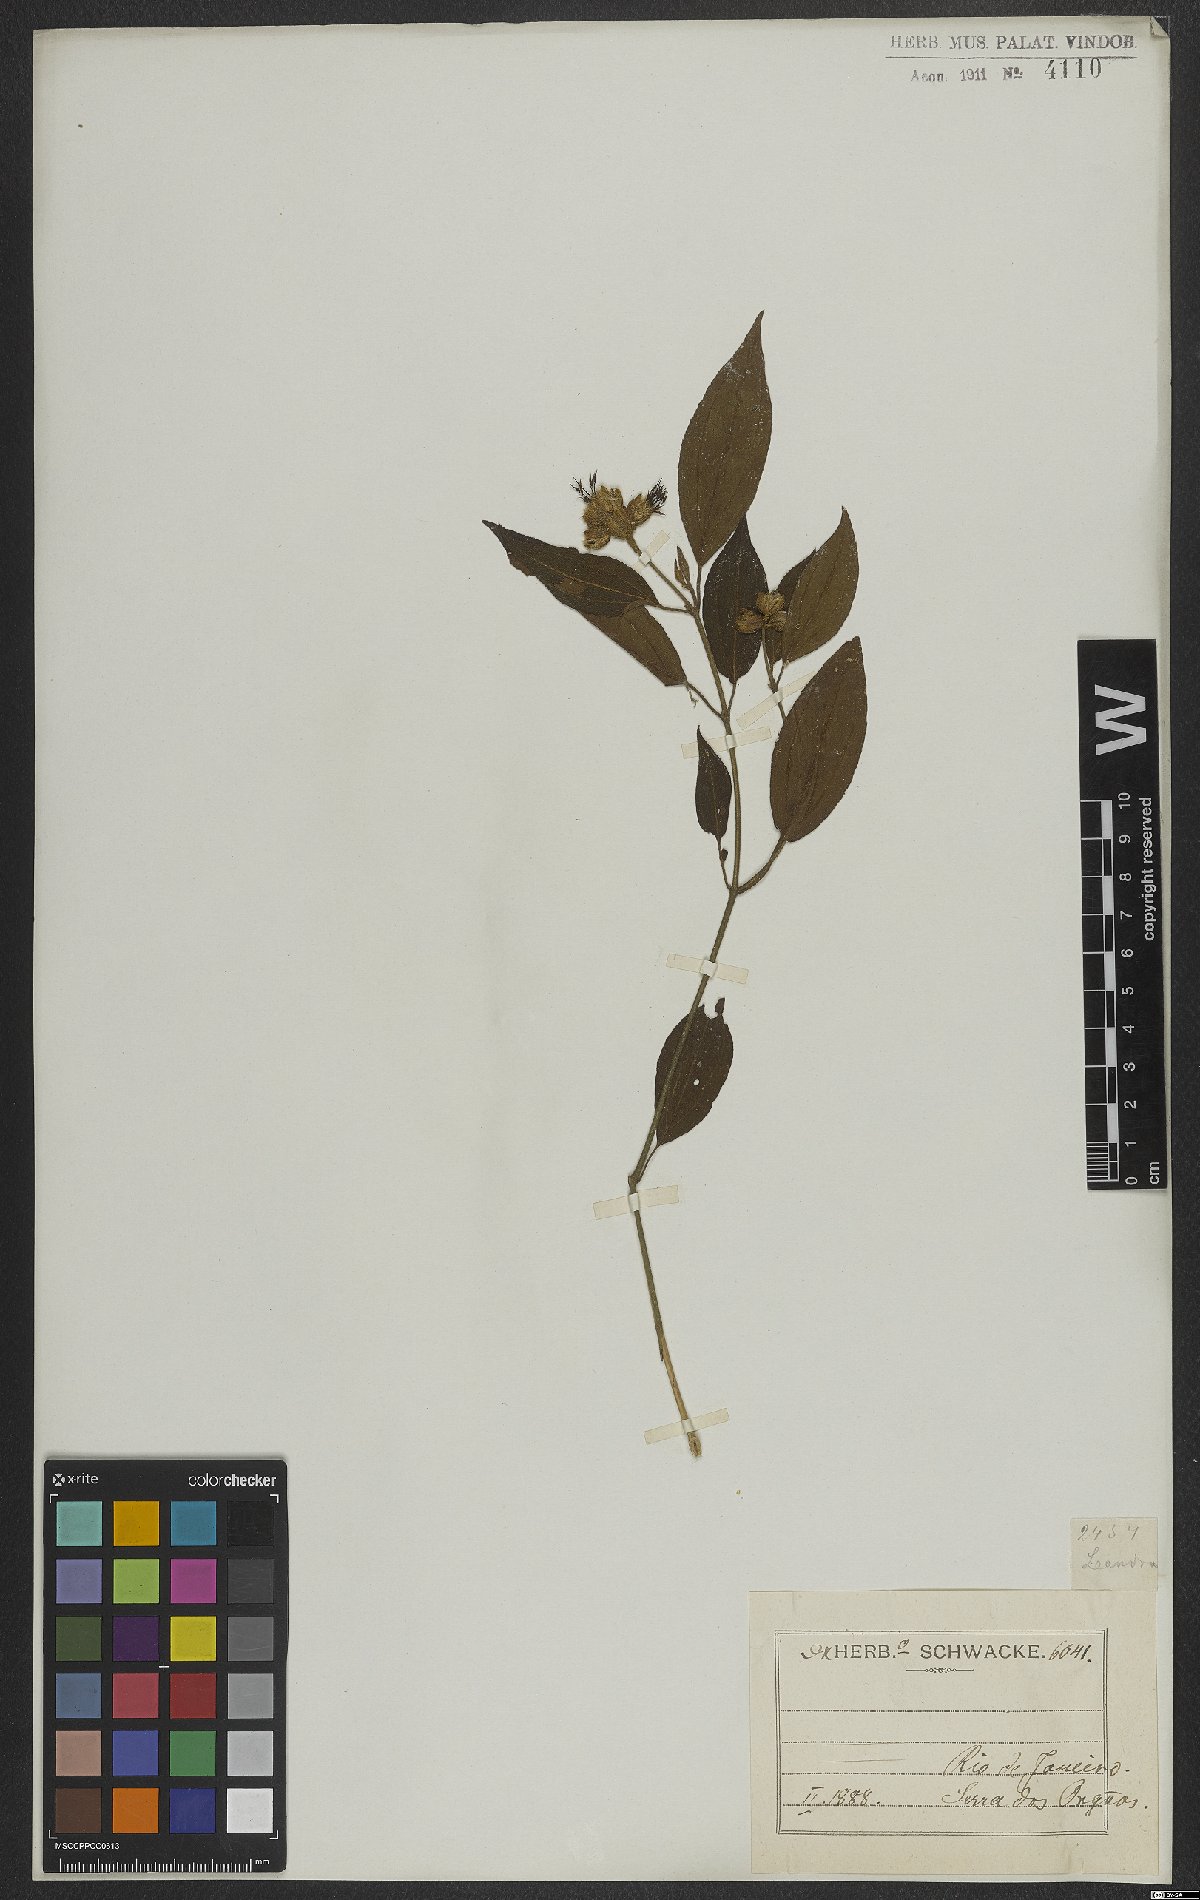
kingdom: Plantae
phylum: Tracheophyta
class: Magnoliopsida
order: Myrtales
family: Melastomataceae
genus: Miconia
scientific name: Miconia
